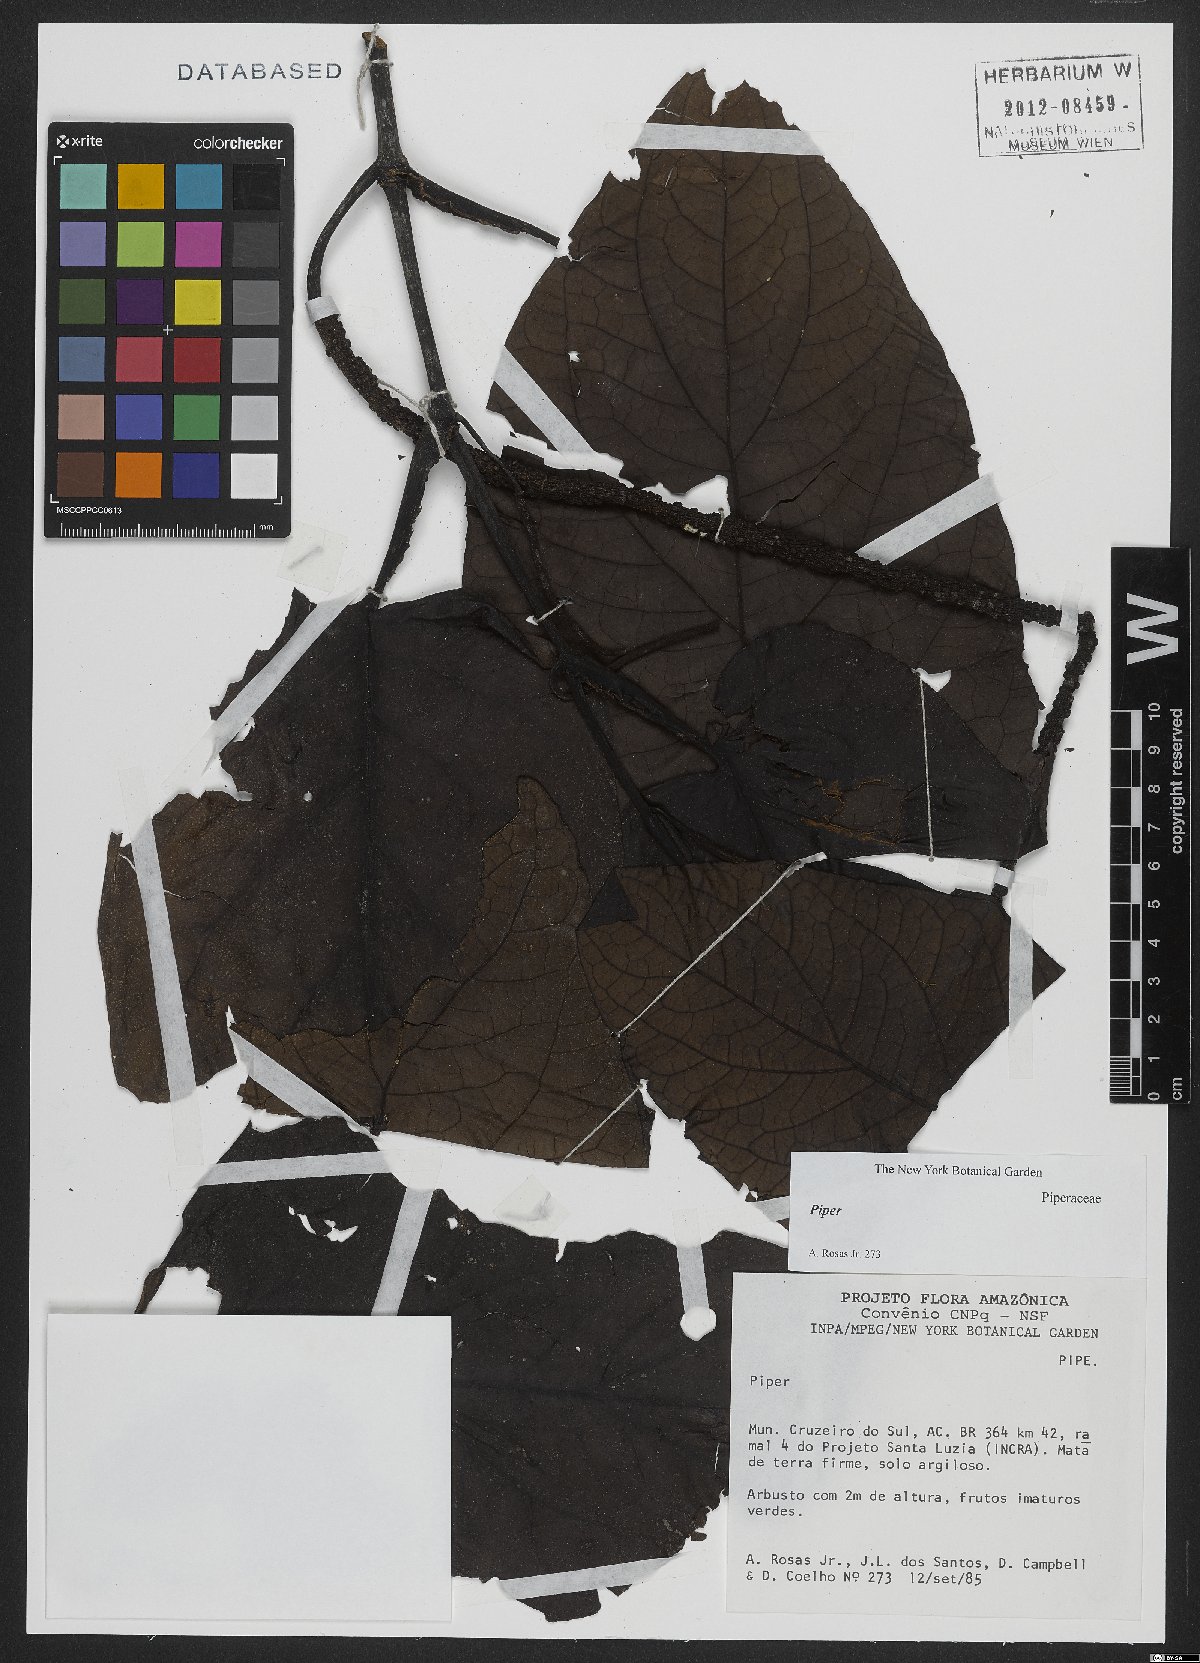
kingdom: Plantae
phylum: Tracheophyta
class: Magnoliopsida
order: Piperales
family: Piperaceae
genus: Piper
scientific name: Piper
